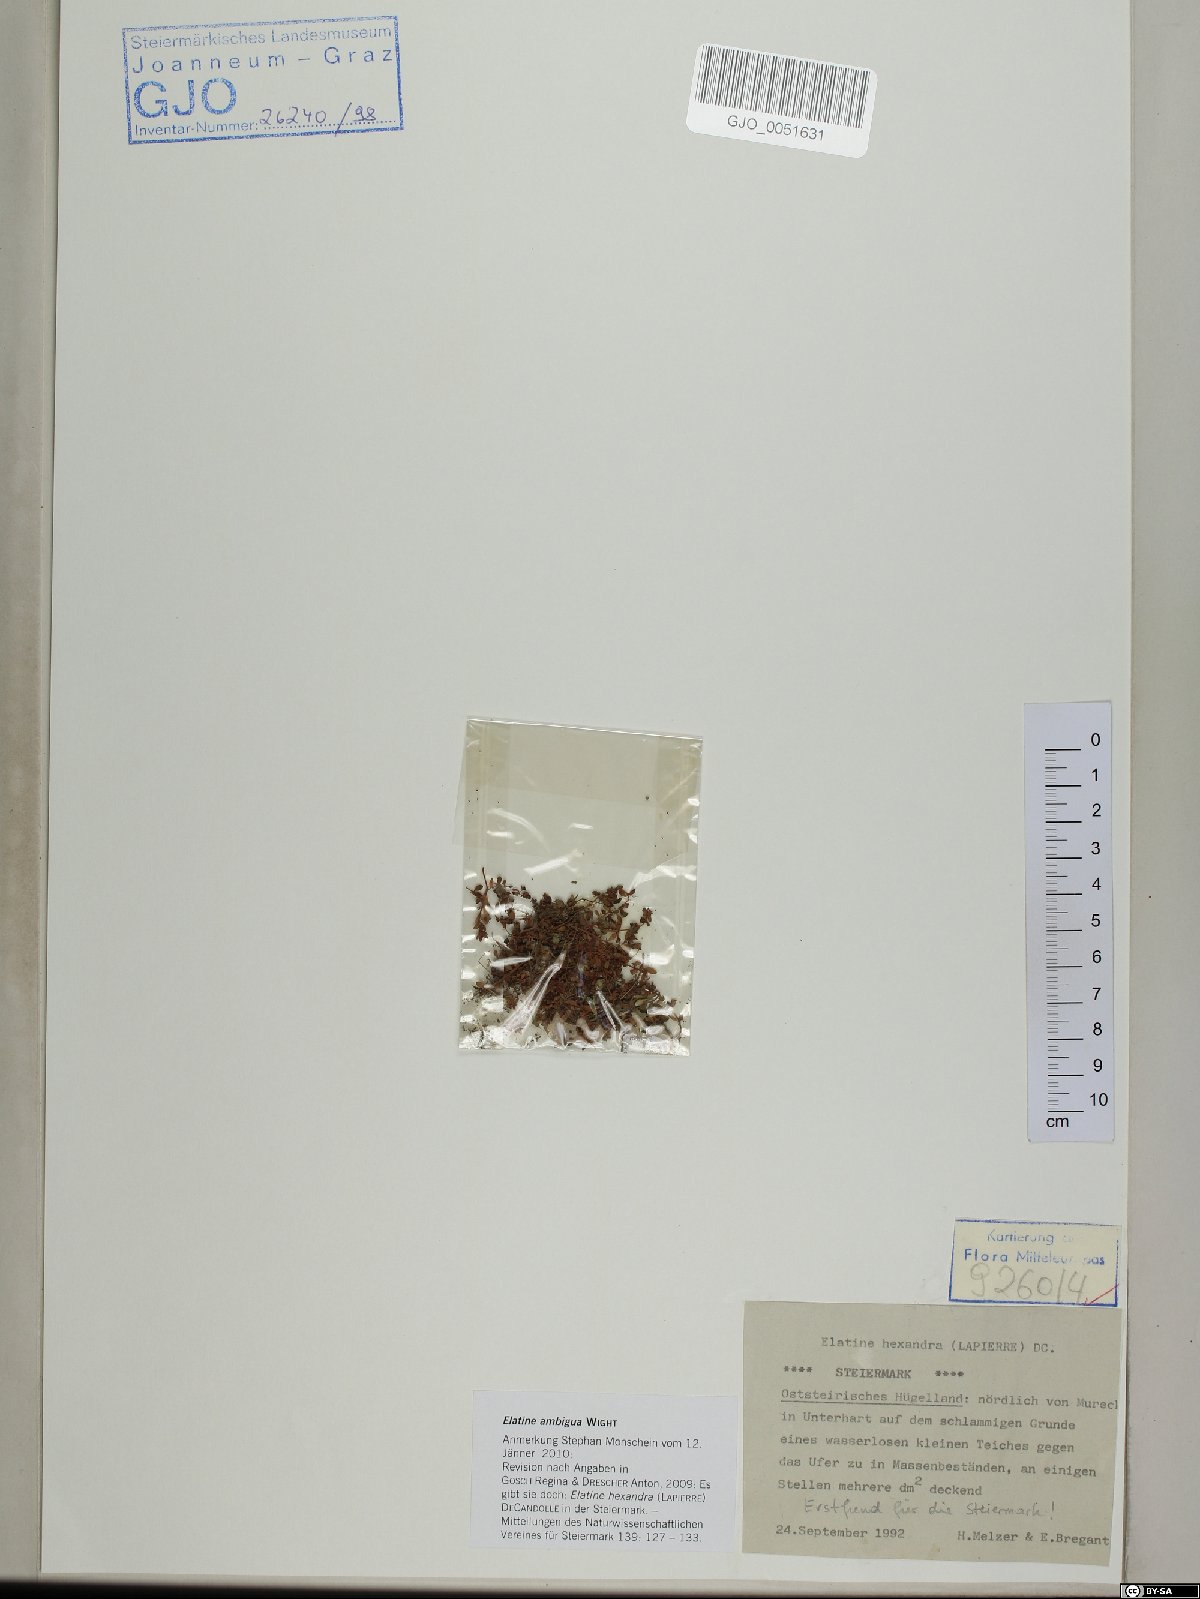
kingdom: Plantae
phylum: Tracheophyta
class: Magnoliopsida
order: Malpighiales
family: Elatinaceae
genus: Elatine
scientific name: Elatine ambigua
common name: Asian waterwort
